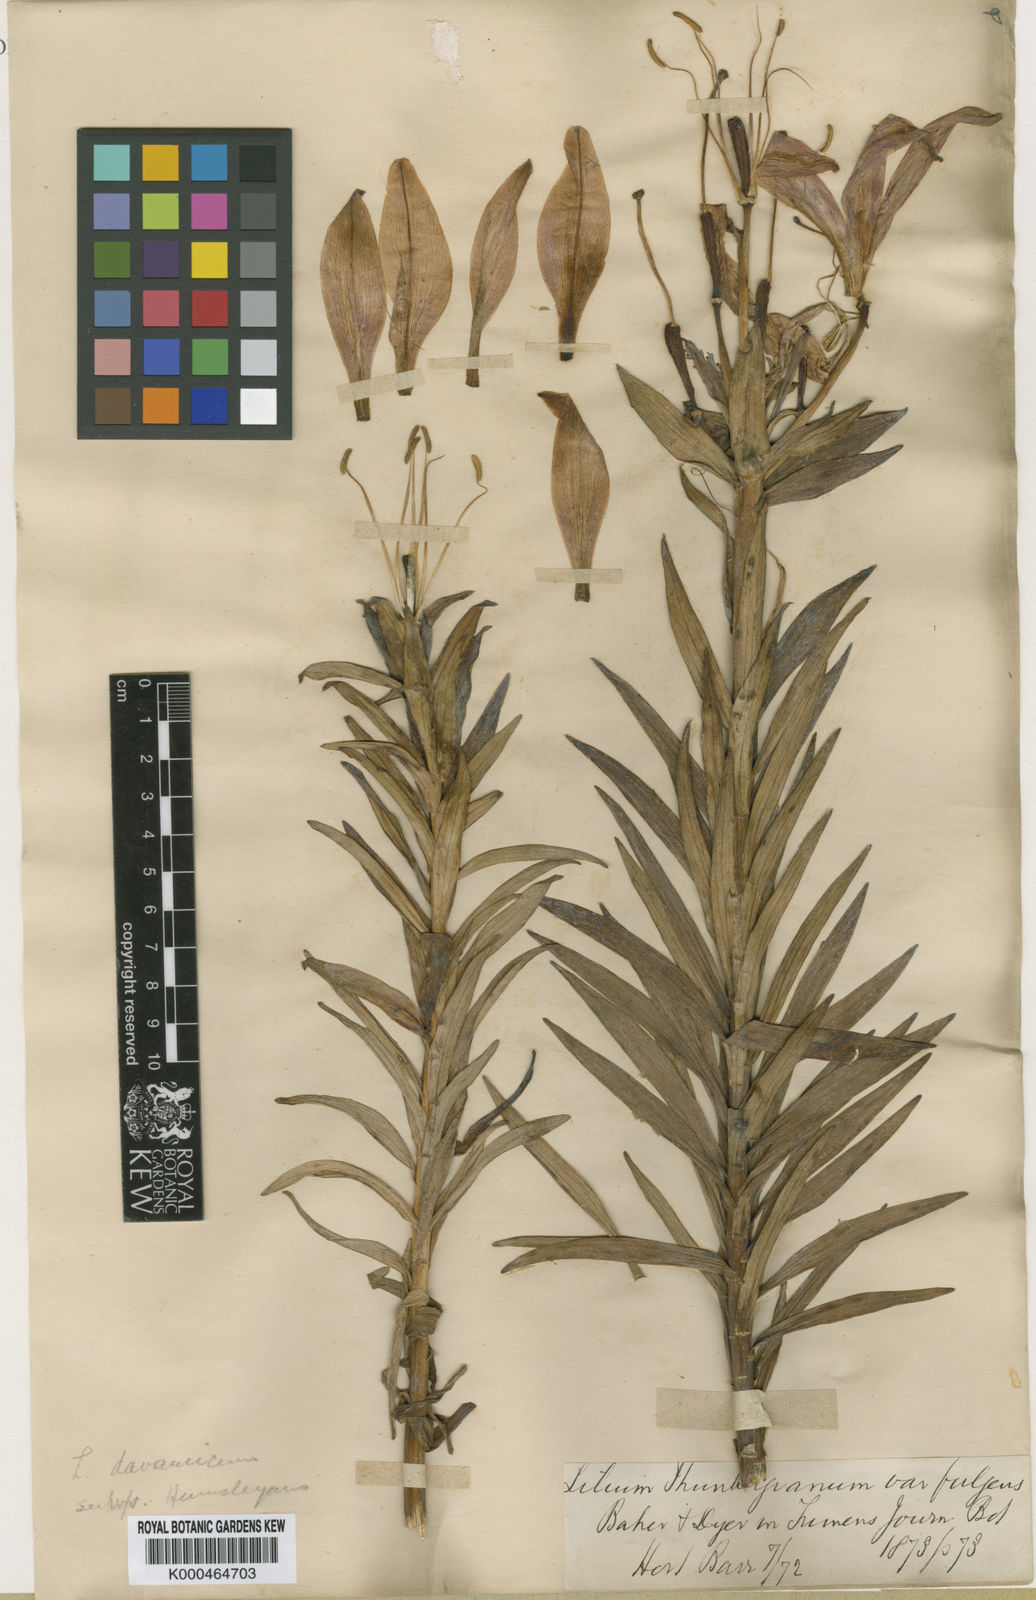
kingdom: Plantae
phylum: Tracheophyta
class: Liliopsida
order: Liliales
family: Liliaceae
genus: Lilium
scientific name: Lilium
